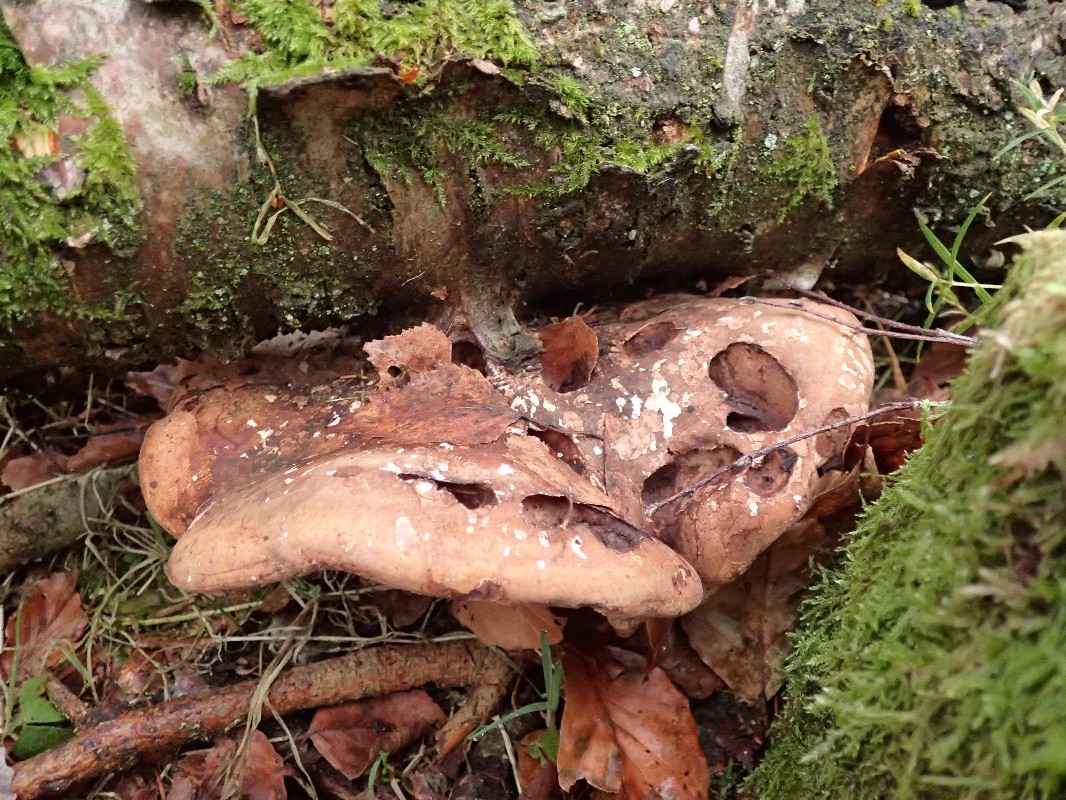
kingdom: Fungi
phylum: Basidiomycota
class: Agaricomycetes
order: Polyporales
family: Fomitopsidaceae
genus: Fomitopsis
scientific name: Fomitopsis betulina
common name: birkeporesvamp
